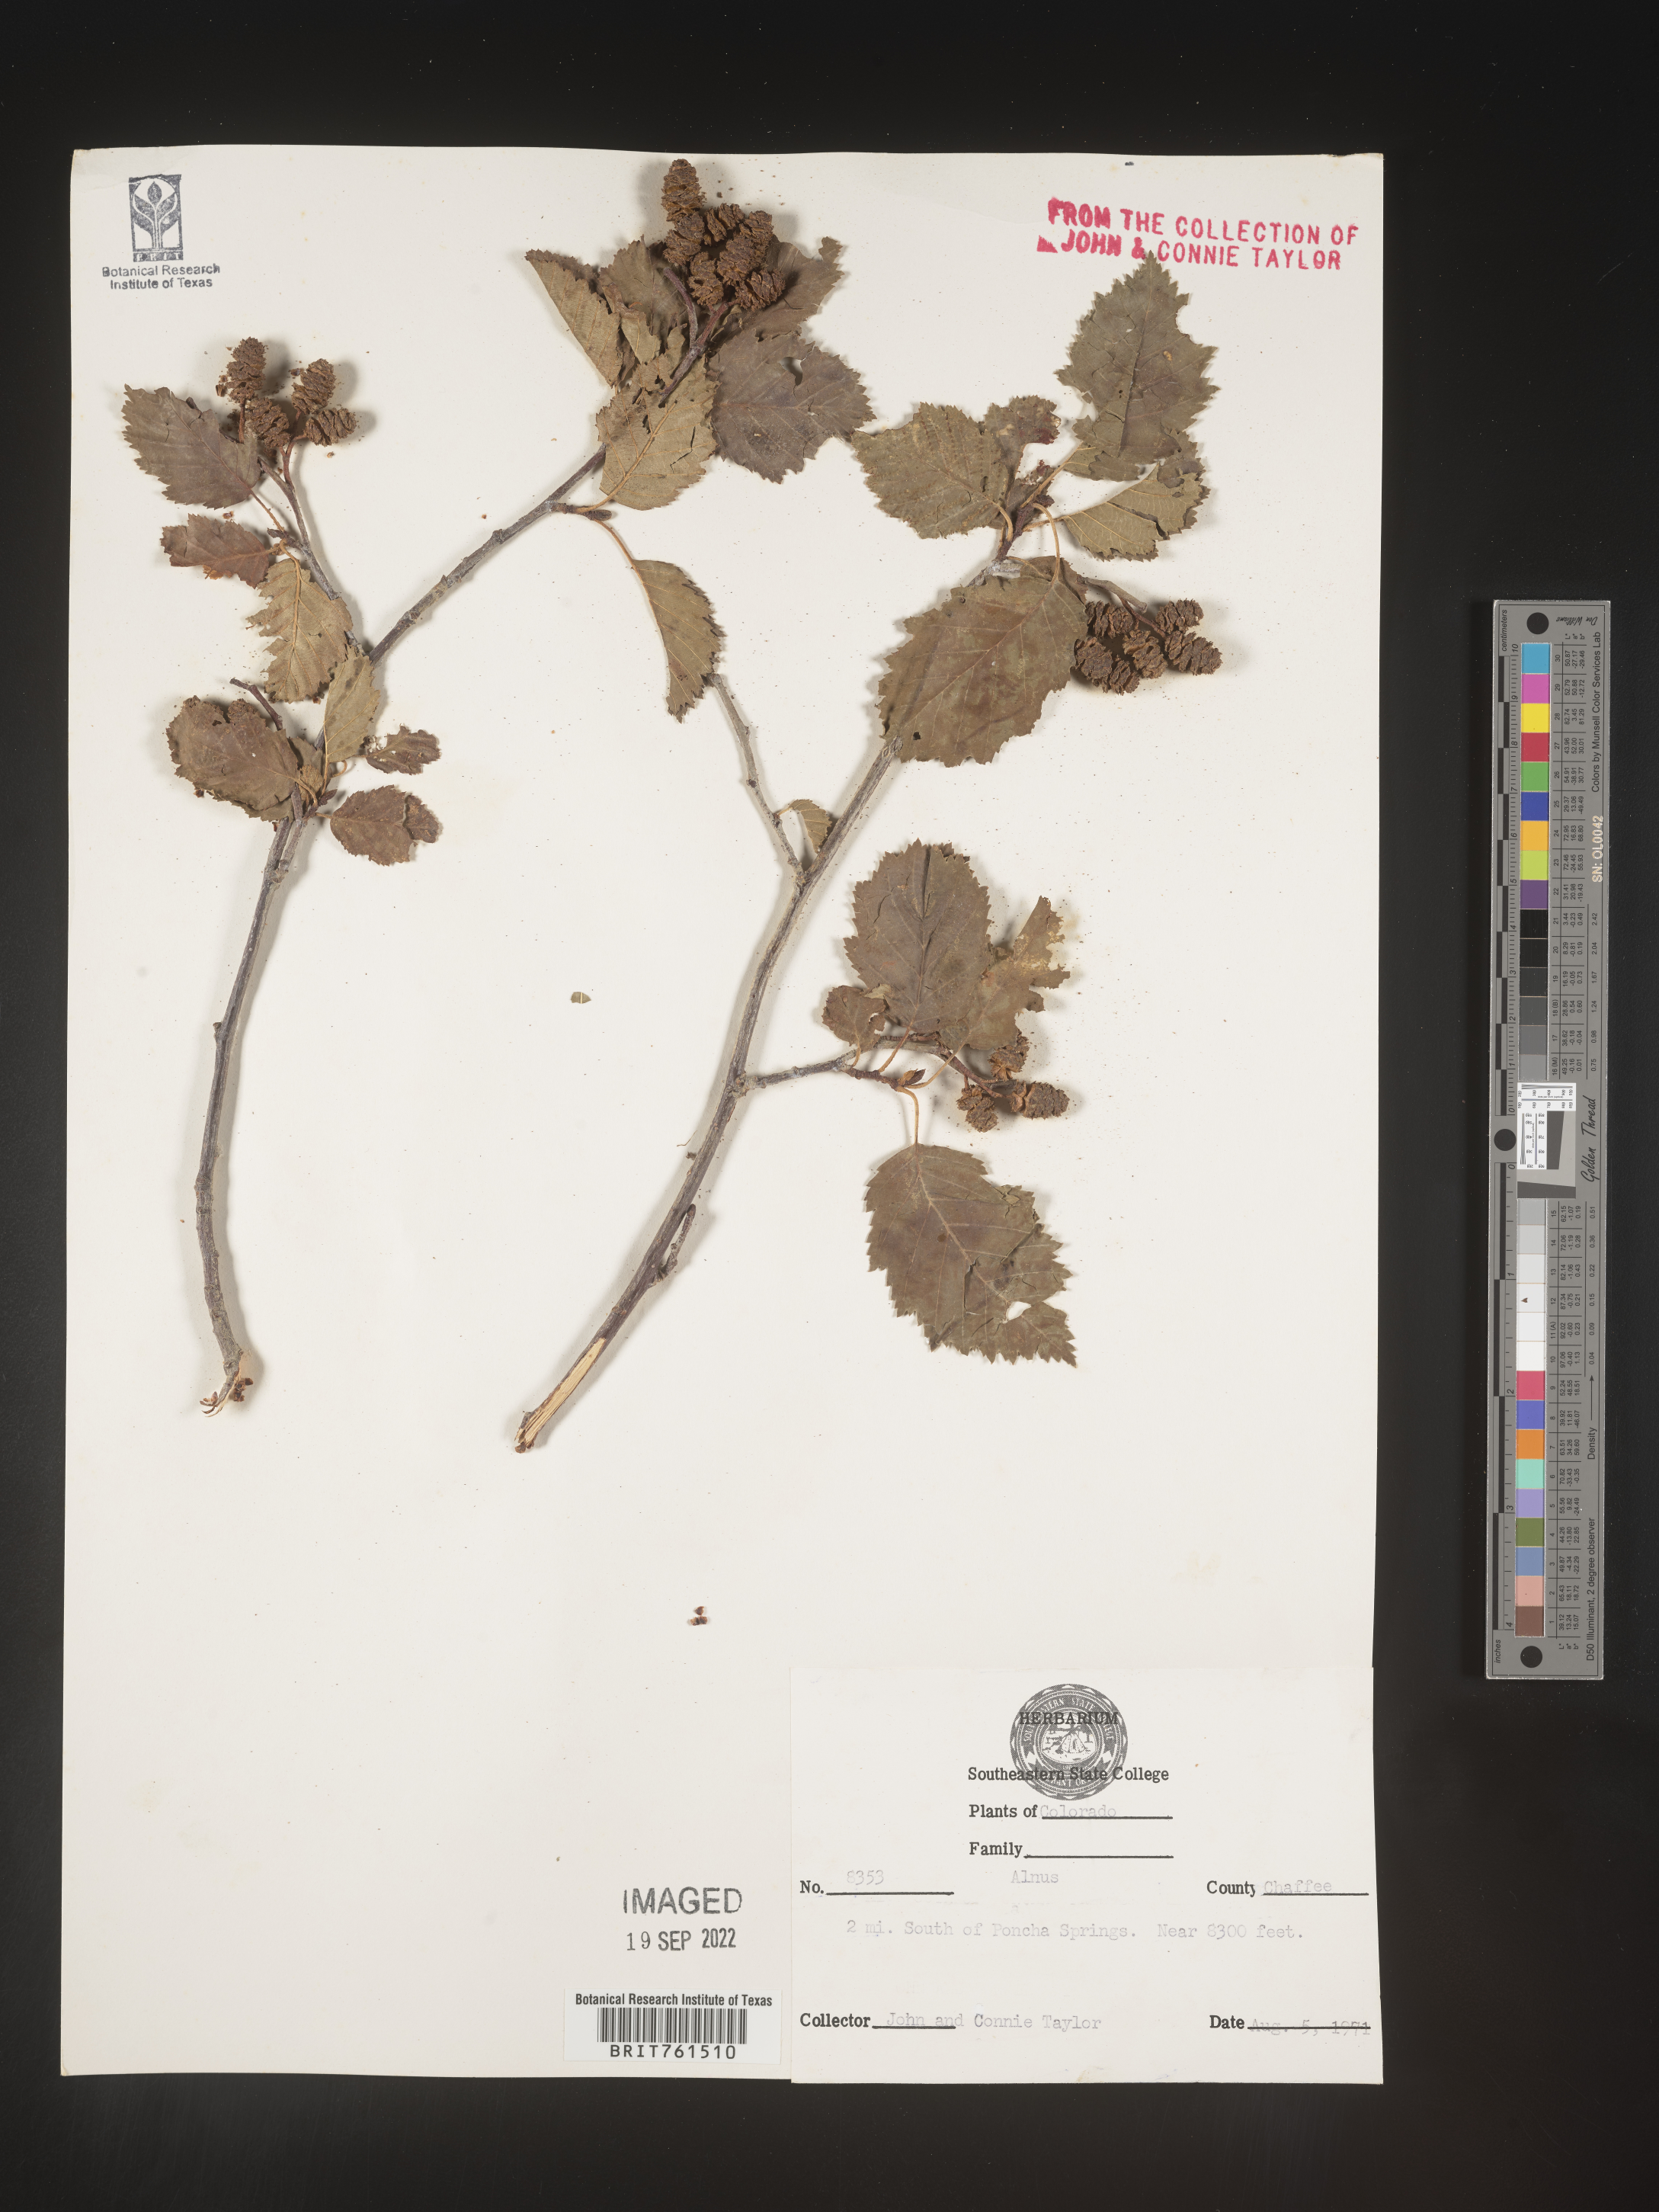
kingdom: Plantae
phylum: Tracheophyta
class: Magnoliopsida
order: Fagales
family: Betulaceae
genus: Alnus
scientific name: Alnus
